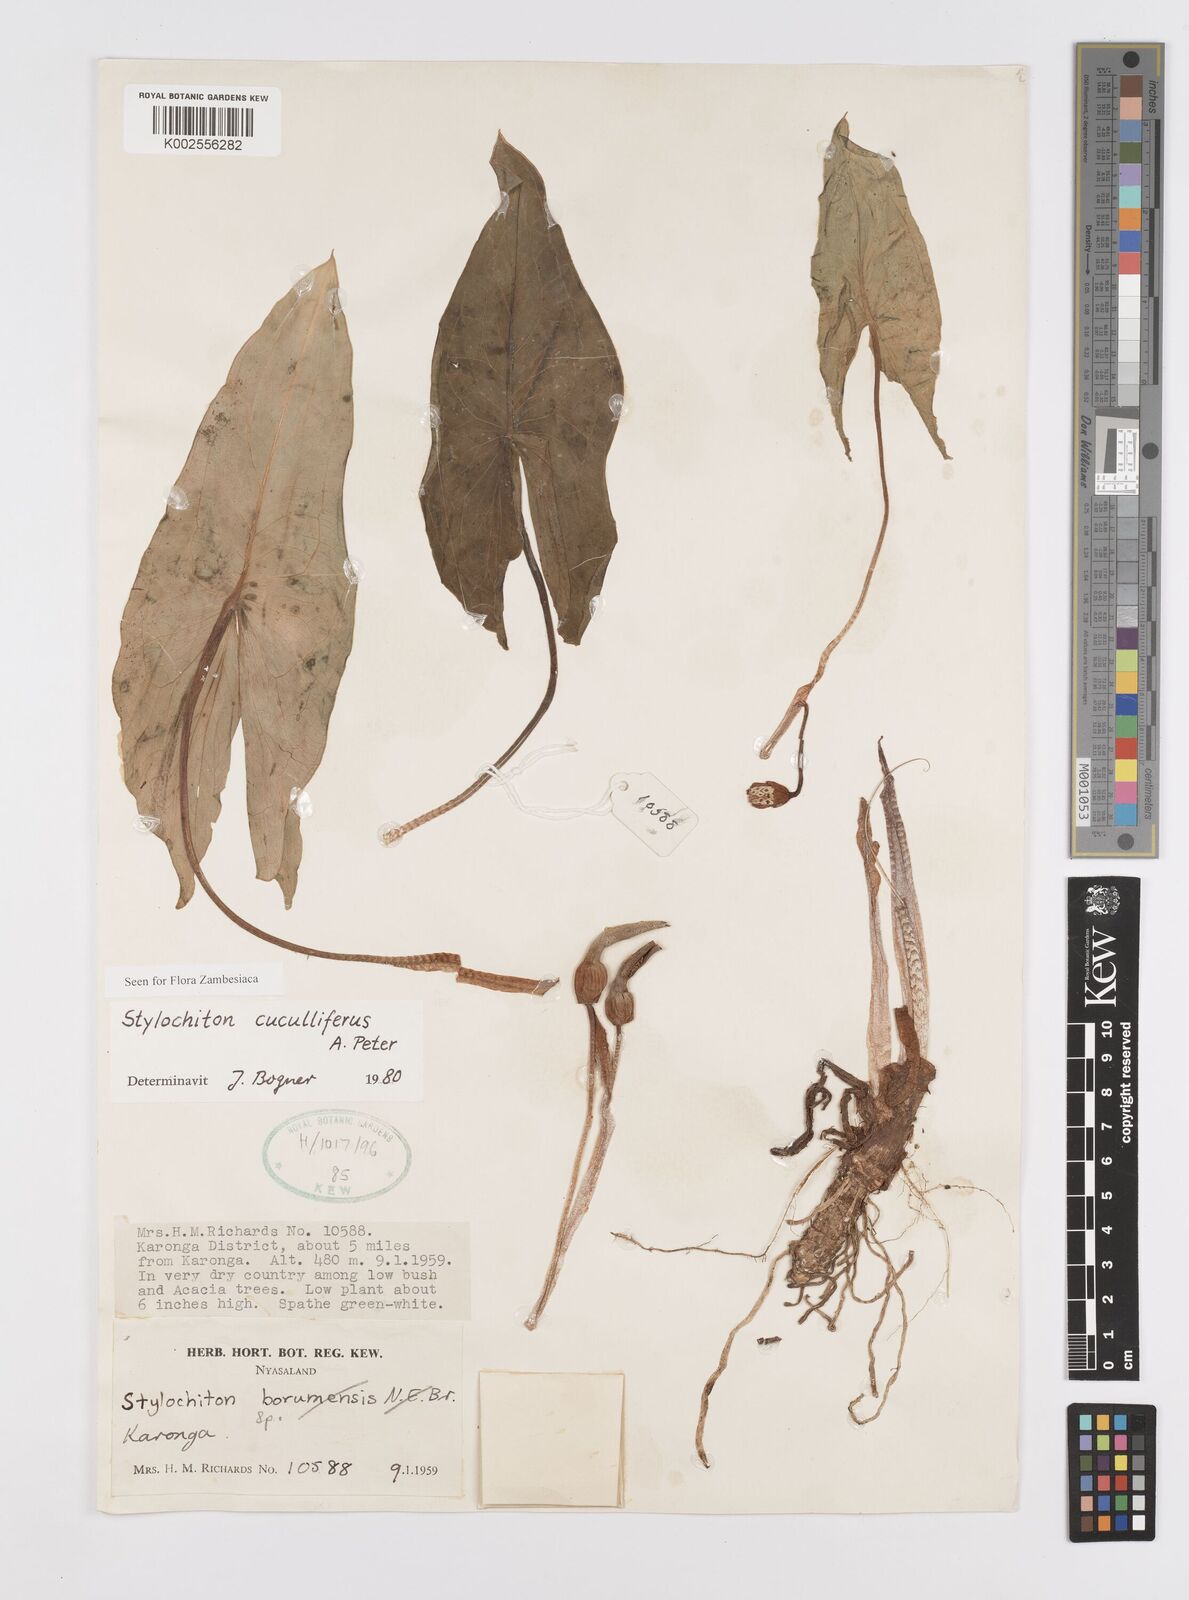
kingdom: Plantae
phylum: Tracheophyta
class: Liliopsida
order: Alismatales
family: Araceae
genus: Stylochaeton
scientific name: Stylochaeton cuculliferum
